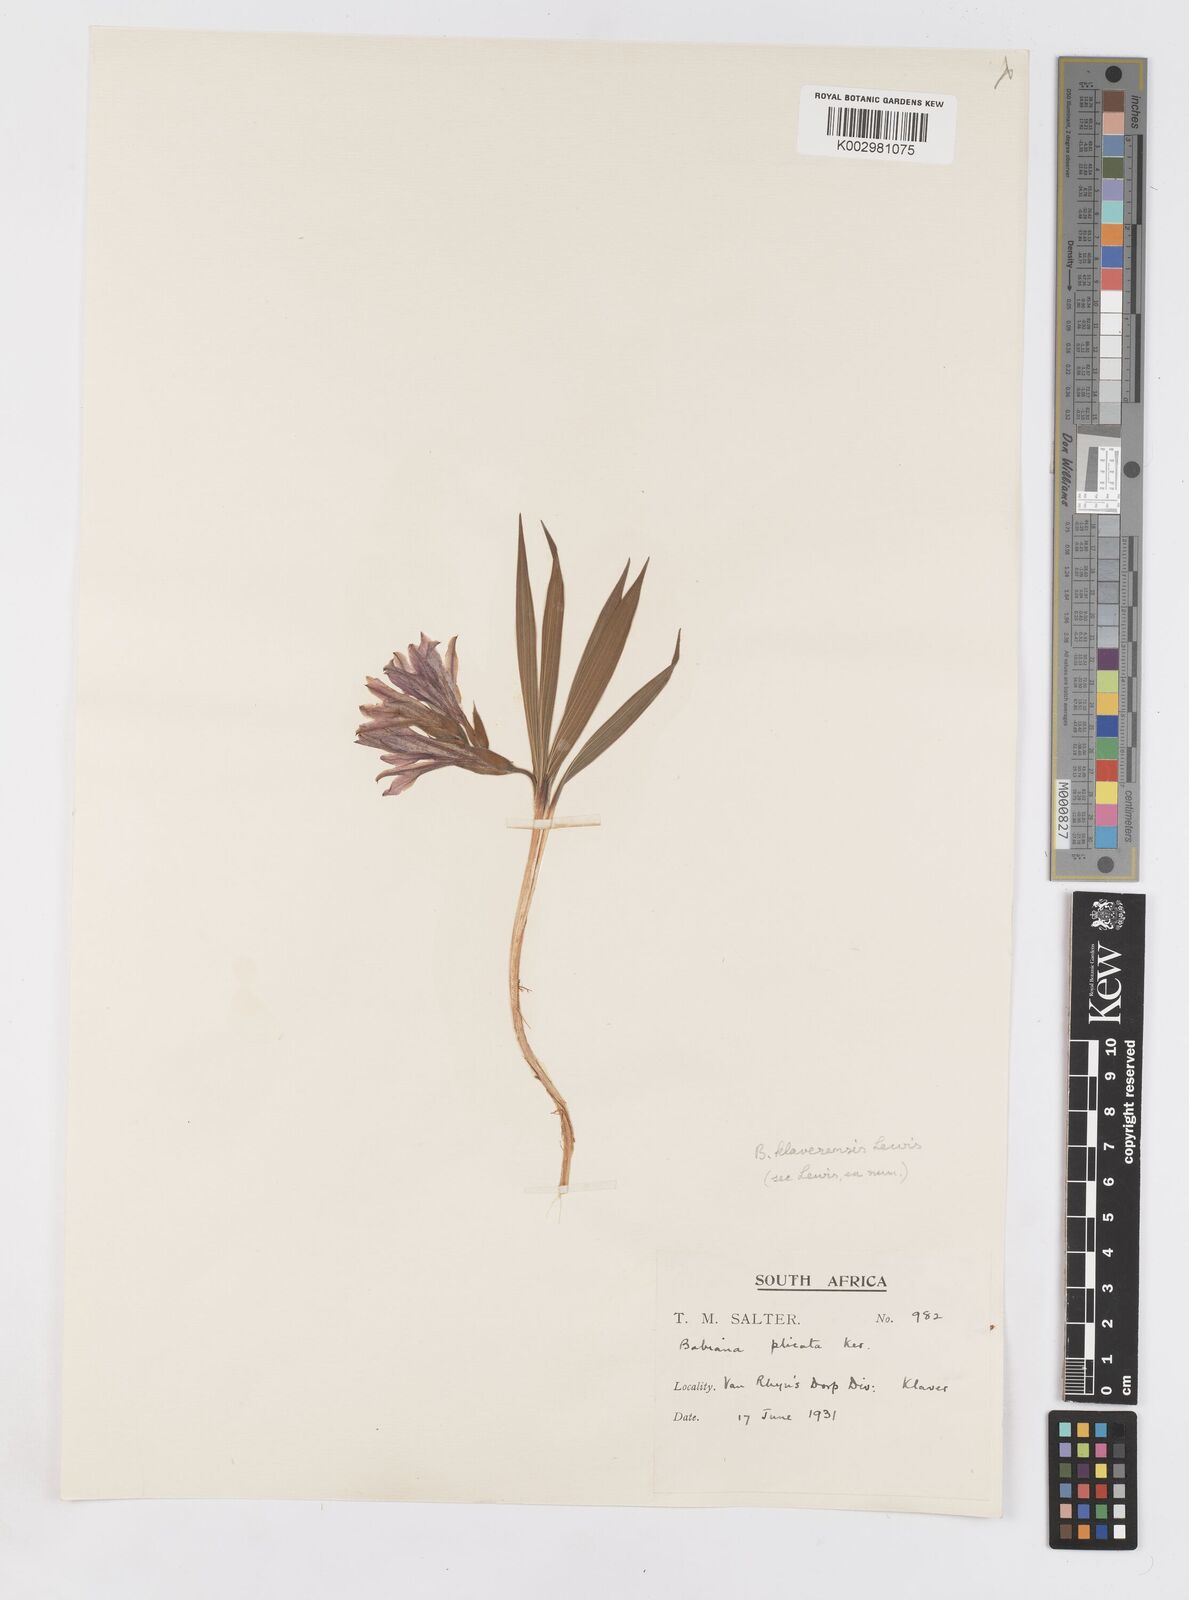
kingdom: Plantae
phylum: Tracheophyta
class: Liliopsida
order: Asparagales
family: Iridaceae
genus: Babiana
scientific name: Babiana mucronata
